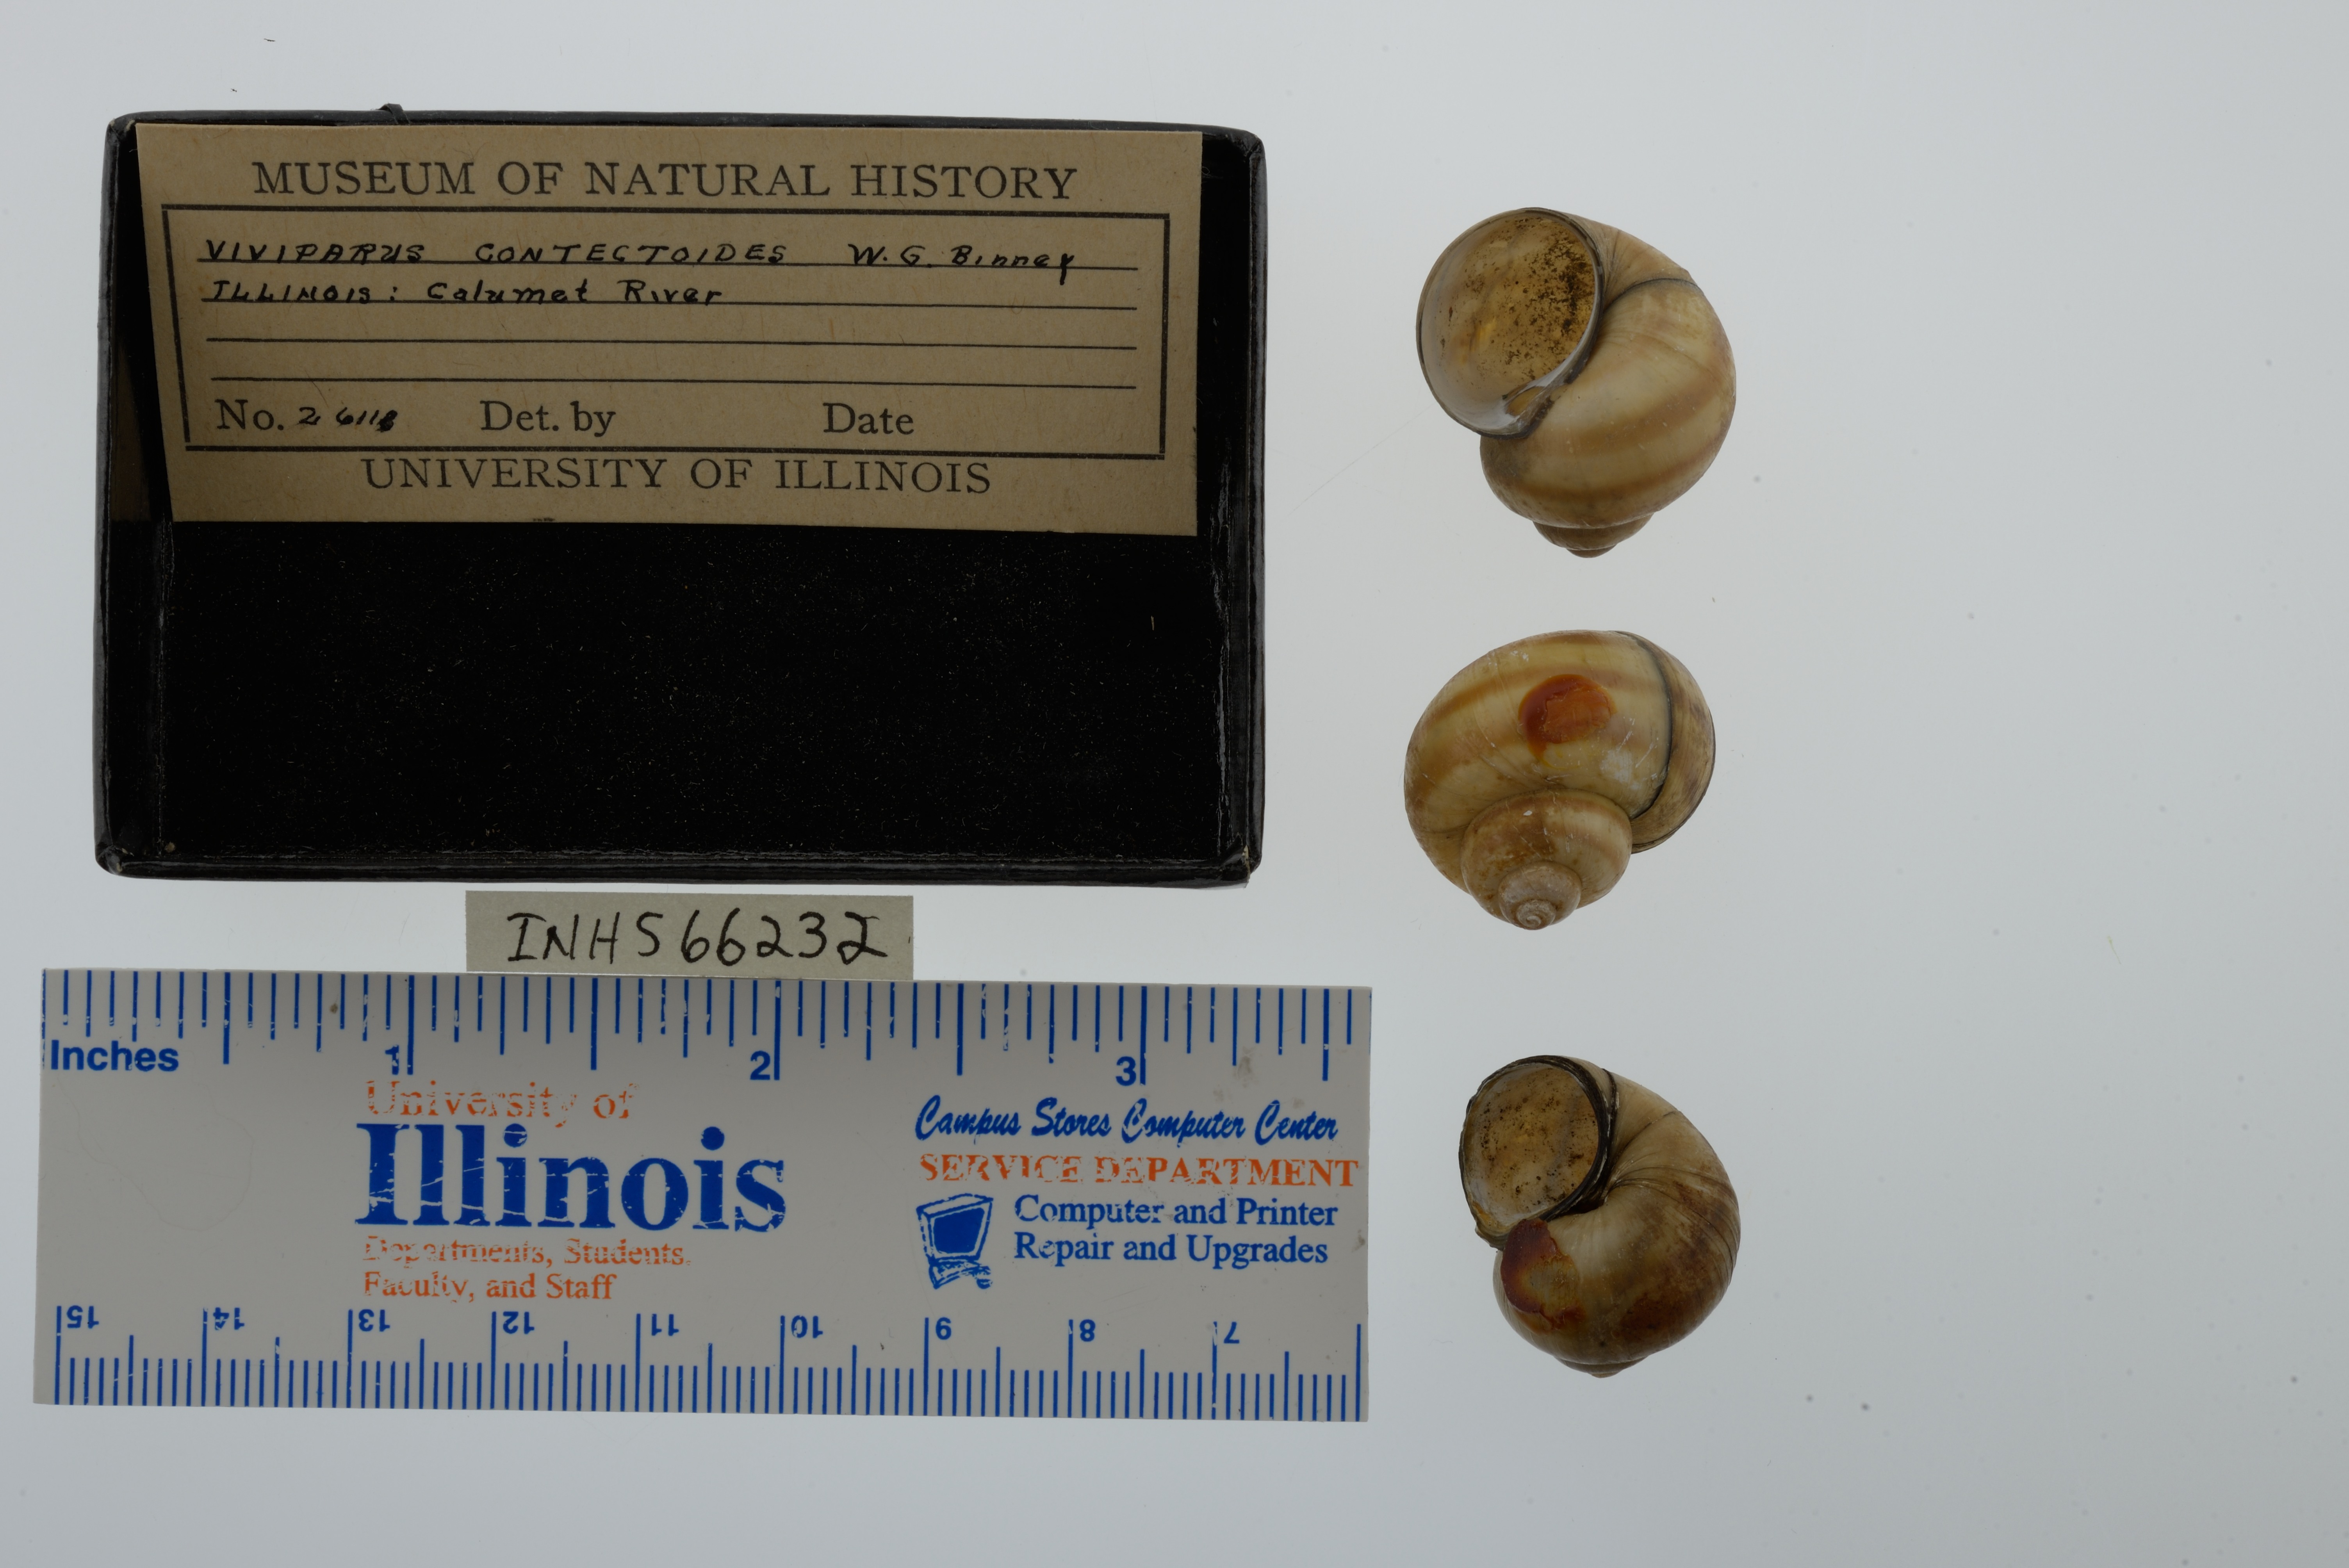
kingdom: Animalia
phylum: Mollusca
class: Gastropoda
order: Architaenioglossa
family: Viviparidae
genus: Callinina
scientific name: Callinina georgiana
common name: Banded mystery snail
